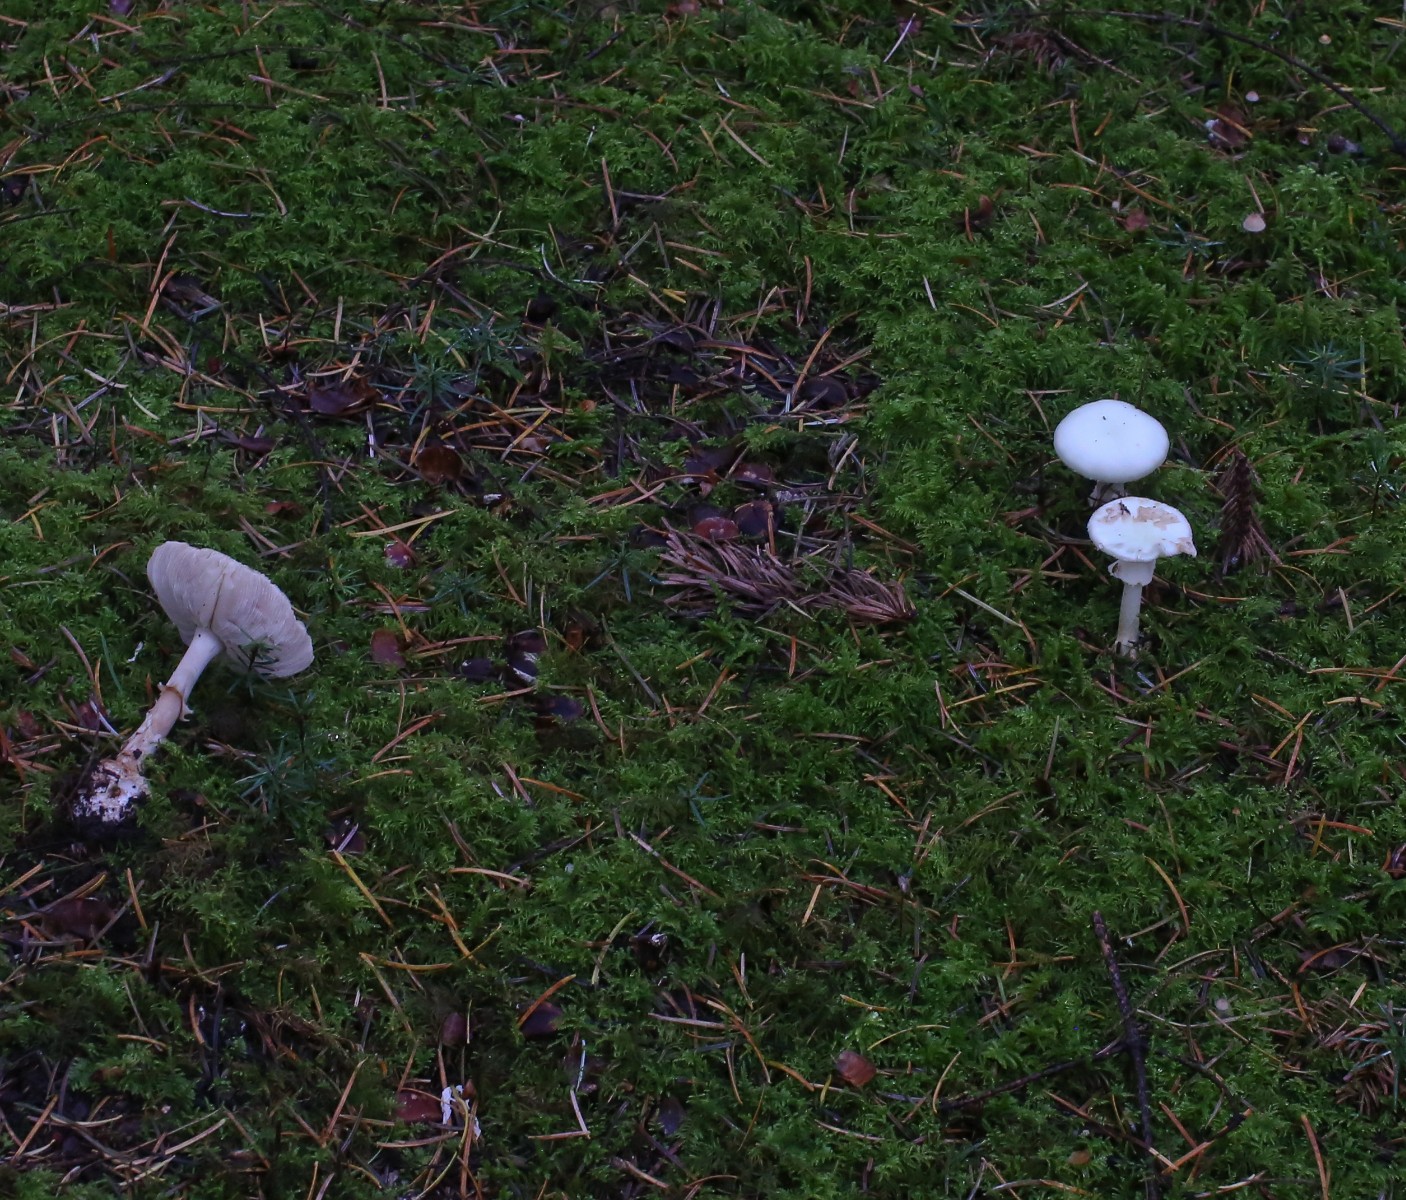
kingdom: Fungi
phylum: Basidiomycota
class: Agaricomycetes
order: Agaricales
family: Amanitaceae
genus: Amanita
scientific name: Amanita citrina
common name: kugleknoldet fluesvamp
